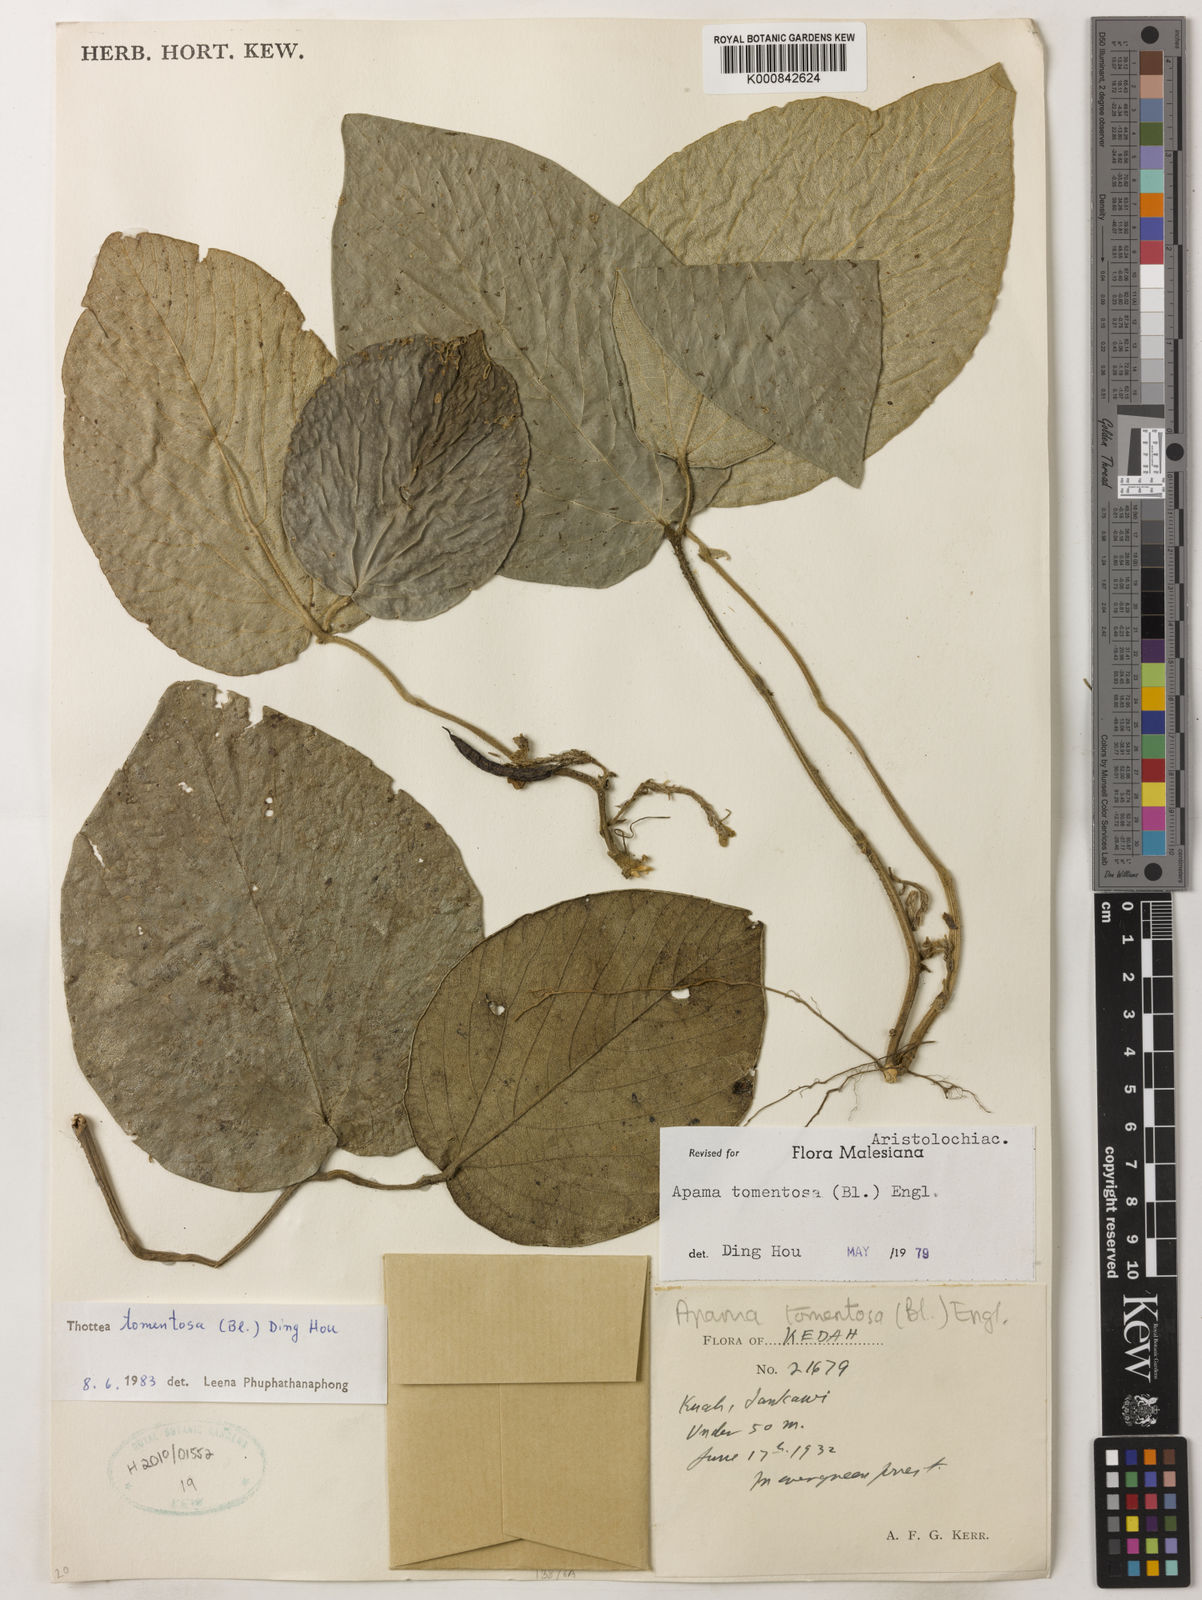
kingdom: Plantae
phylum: Tracheophyta
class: Magnoliopsida
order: Piperales
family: Aristolochiaceae
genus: Thottea
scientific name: Thottea tomentosa
